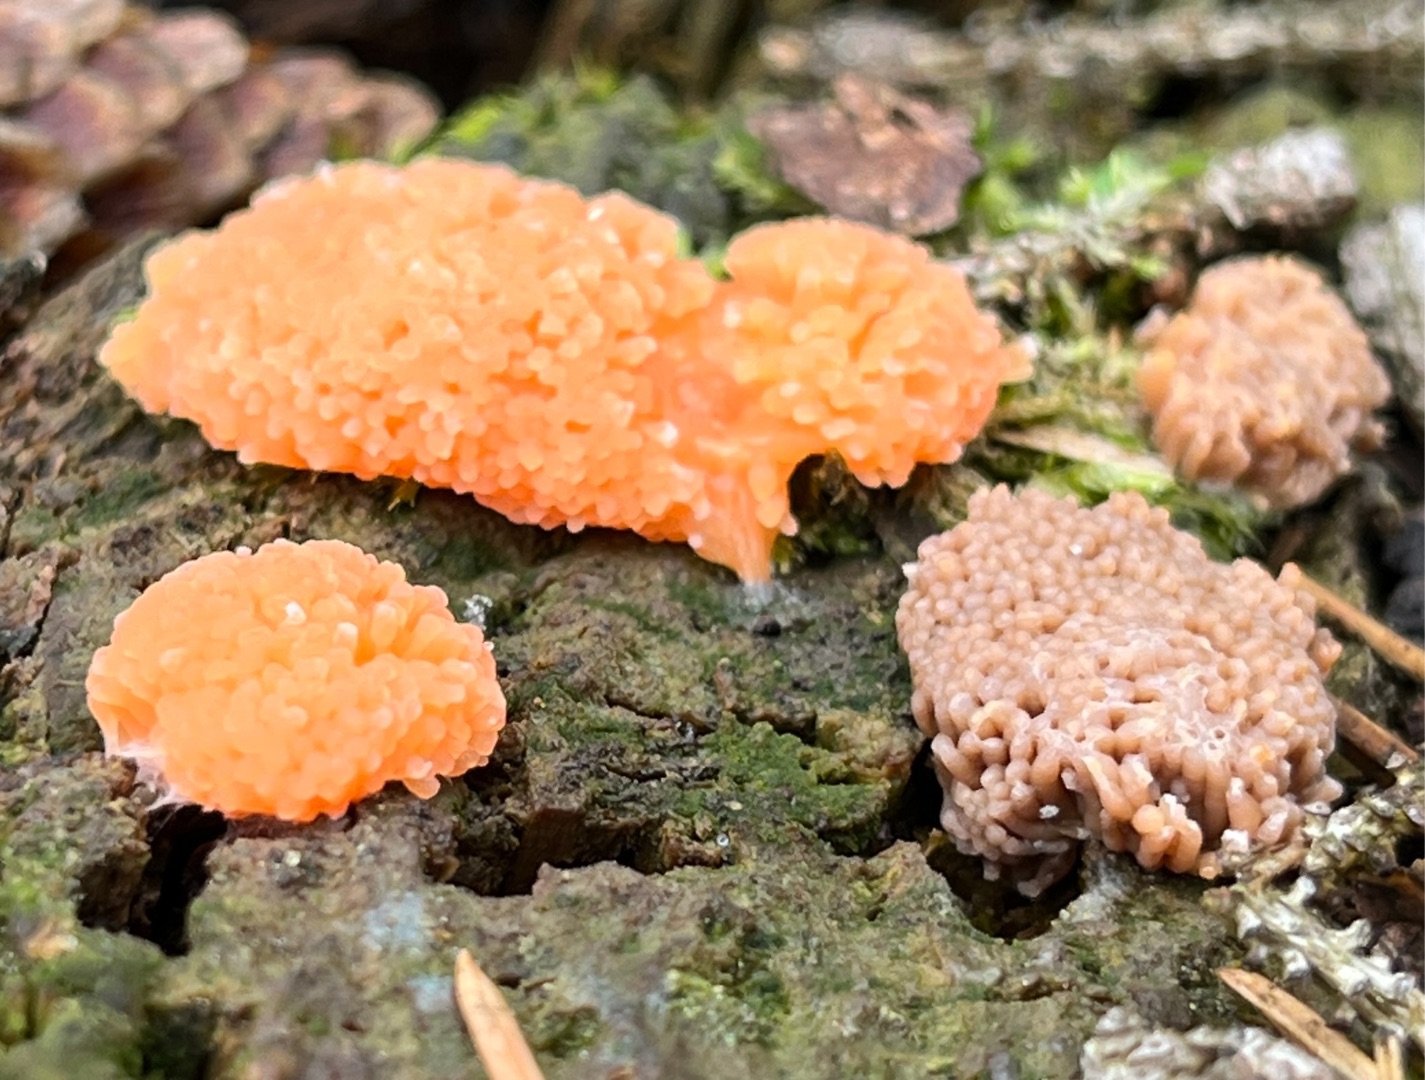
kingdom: Protozoa
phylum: Mycetozoa
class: Myxomycetes
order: Cribrariales
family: Tubiferaceae
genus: Tubifera
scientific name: Tubifera ferruginosa
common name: Kanel-støvrør
